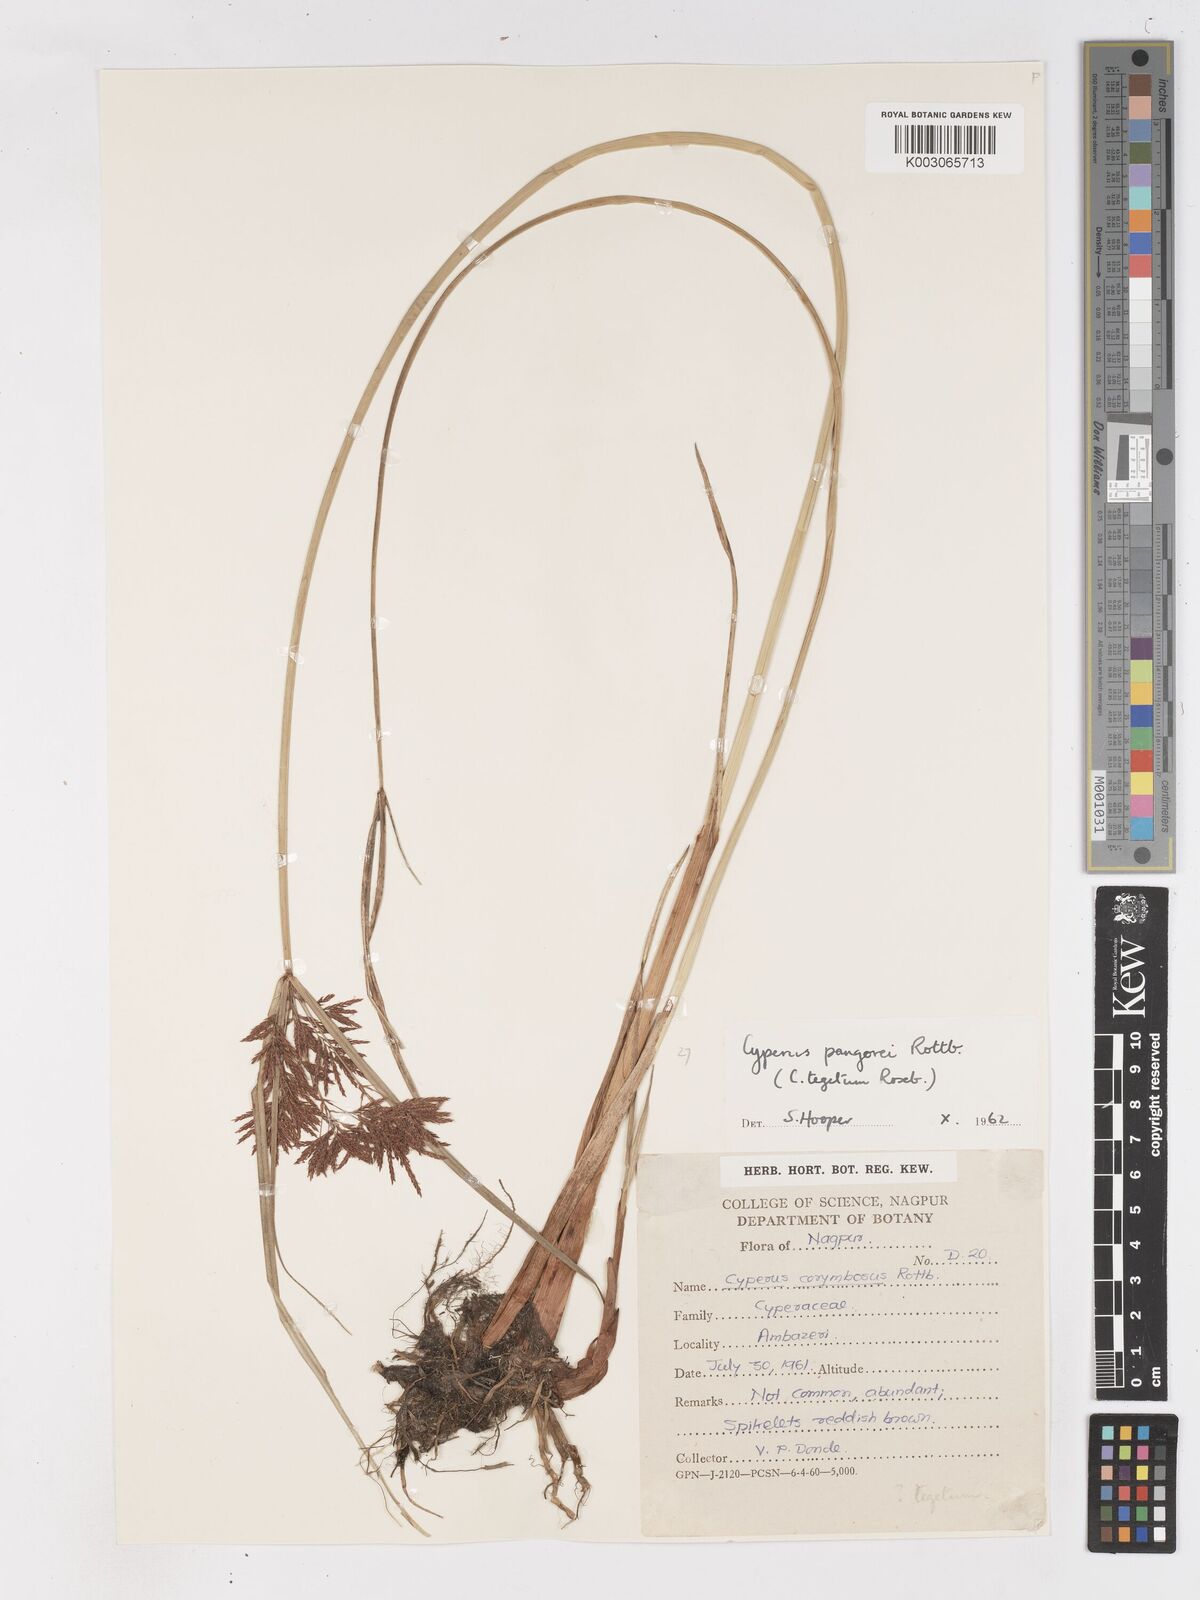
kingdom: Plantae
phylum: Tracheophyta
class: Liliopsida
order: Poales
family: Cyperaceae
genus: Cyperus
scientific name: Cyperus pangorei
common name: Mat sedge
